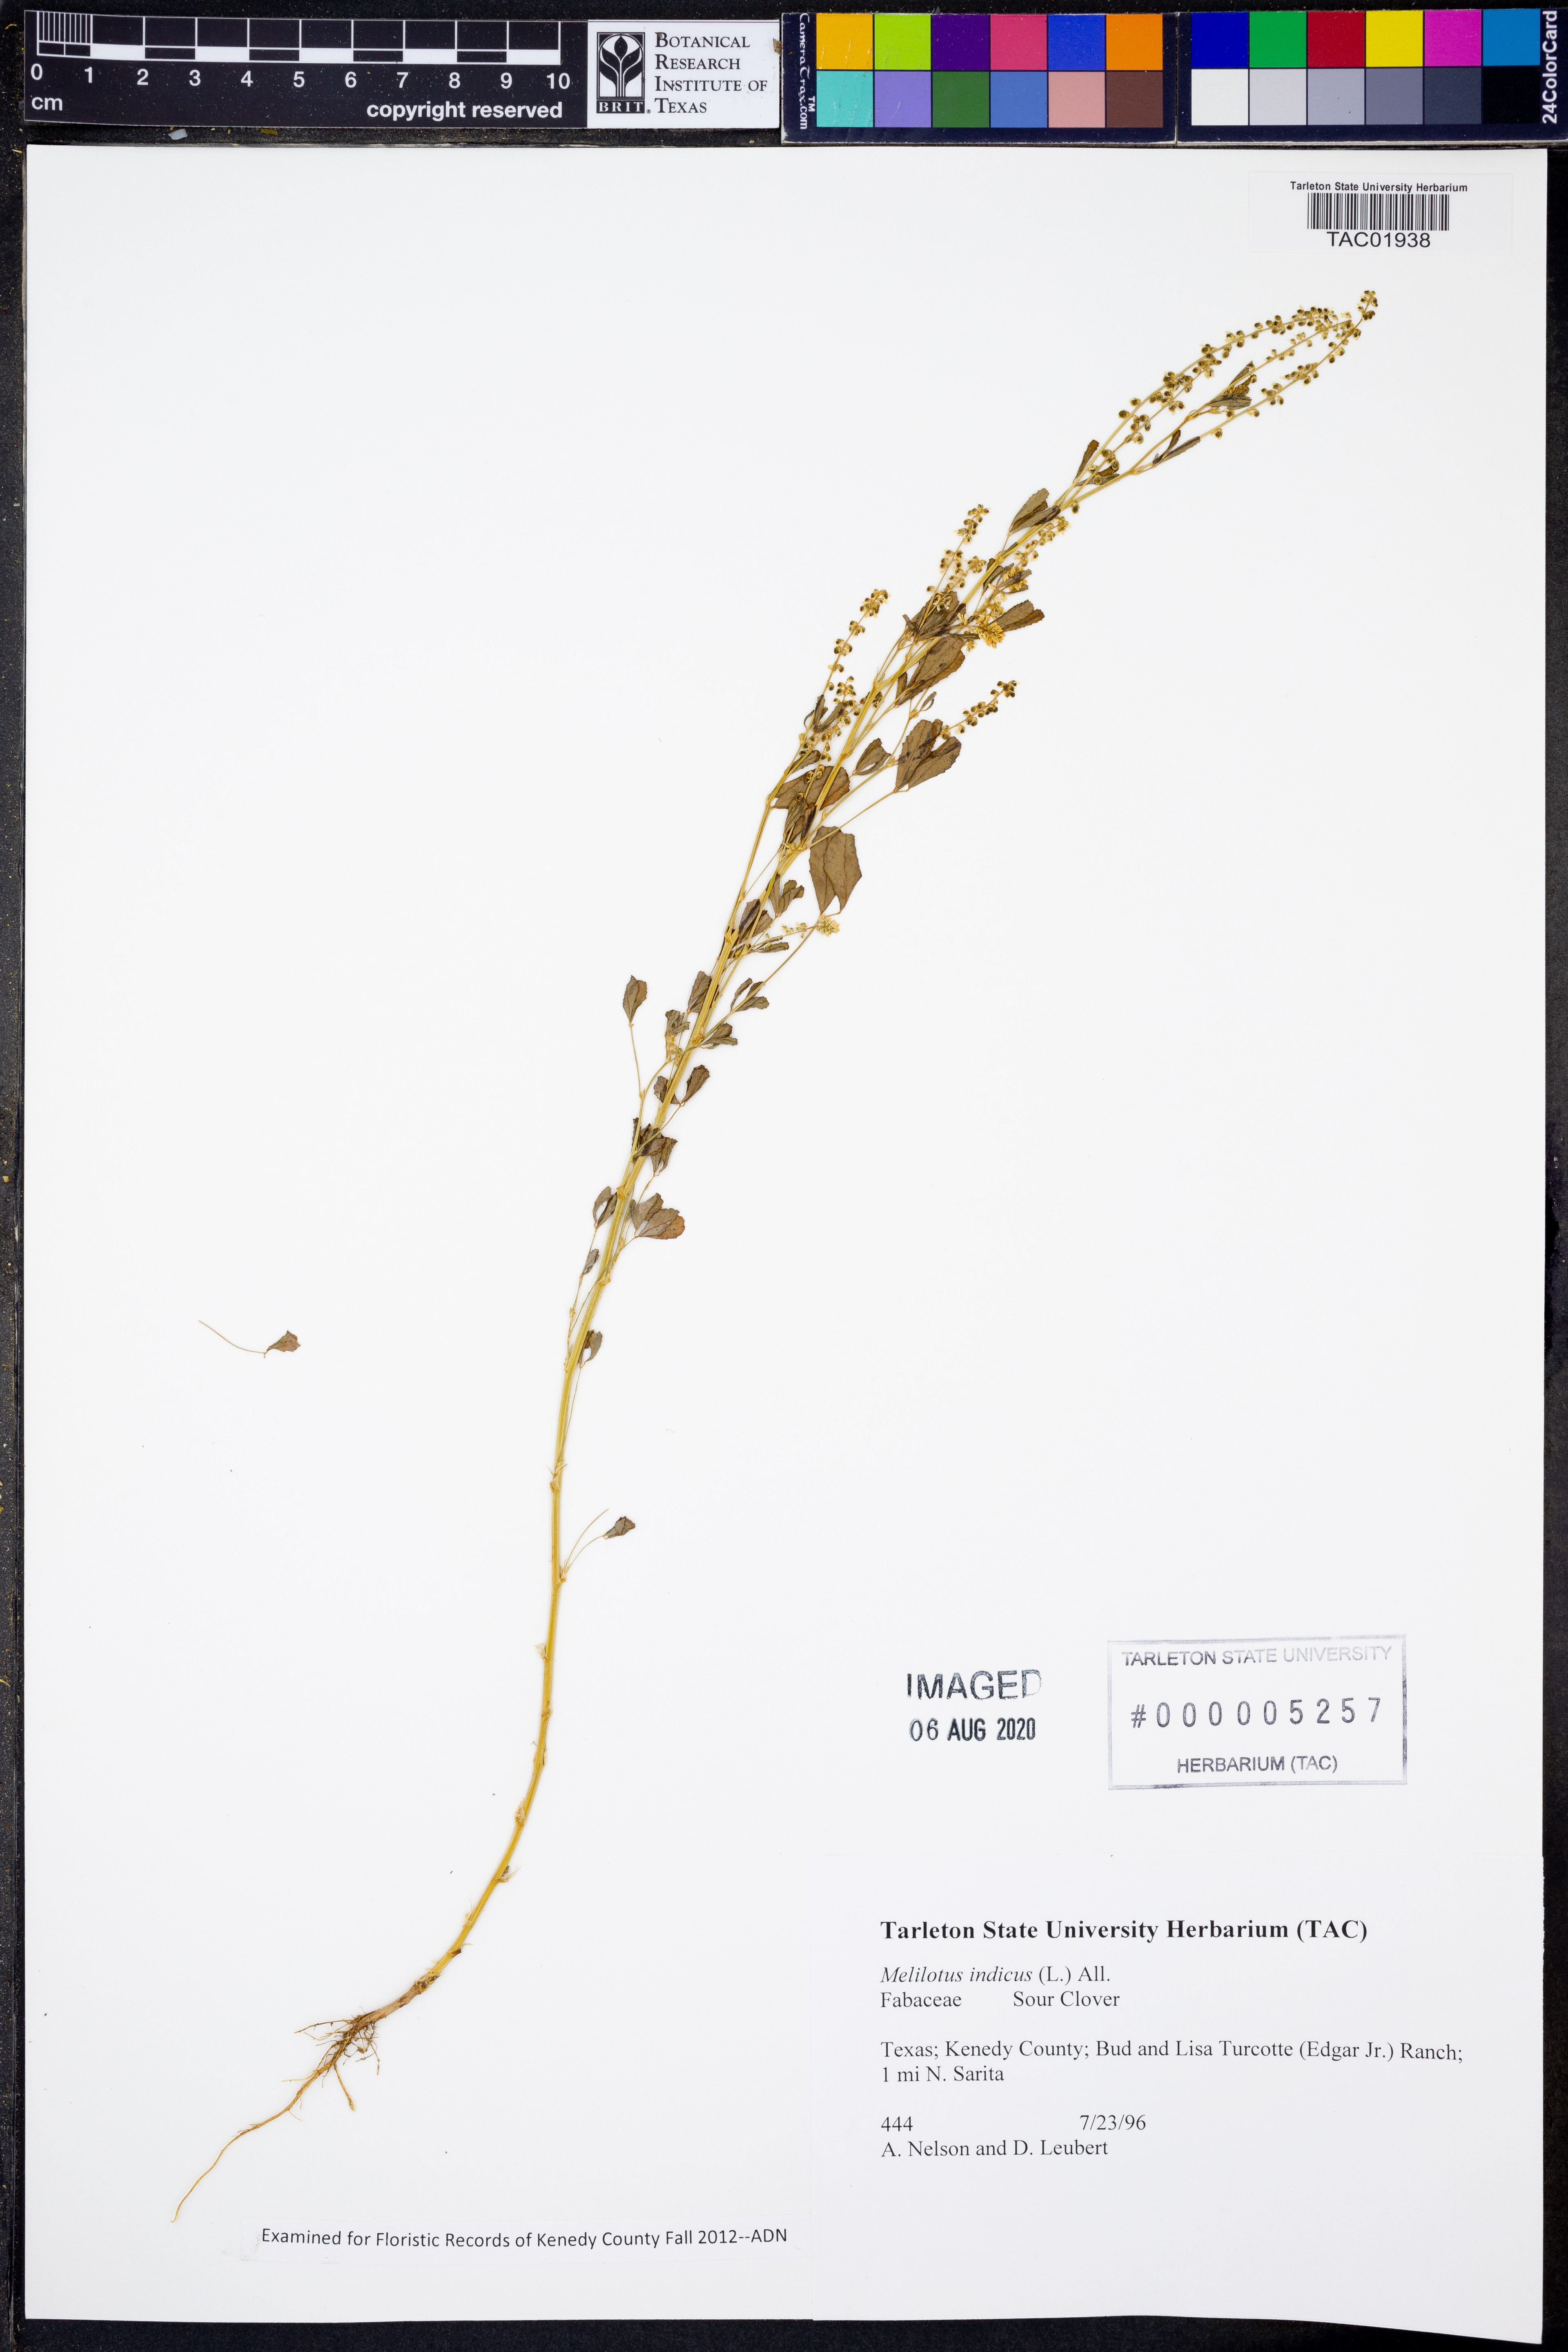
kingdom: Plantae
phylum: Tracheophyta
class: Magnoliopsida
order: Fabales
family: Fabaceae
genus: Melilotus
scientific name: Melilotus indicus
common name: Small melilot
